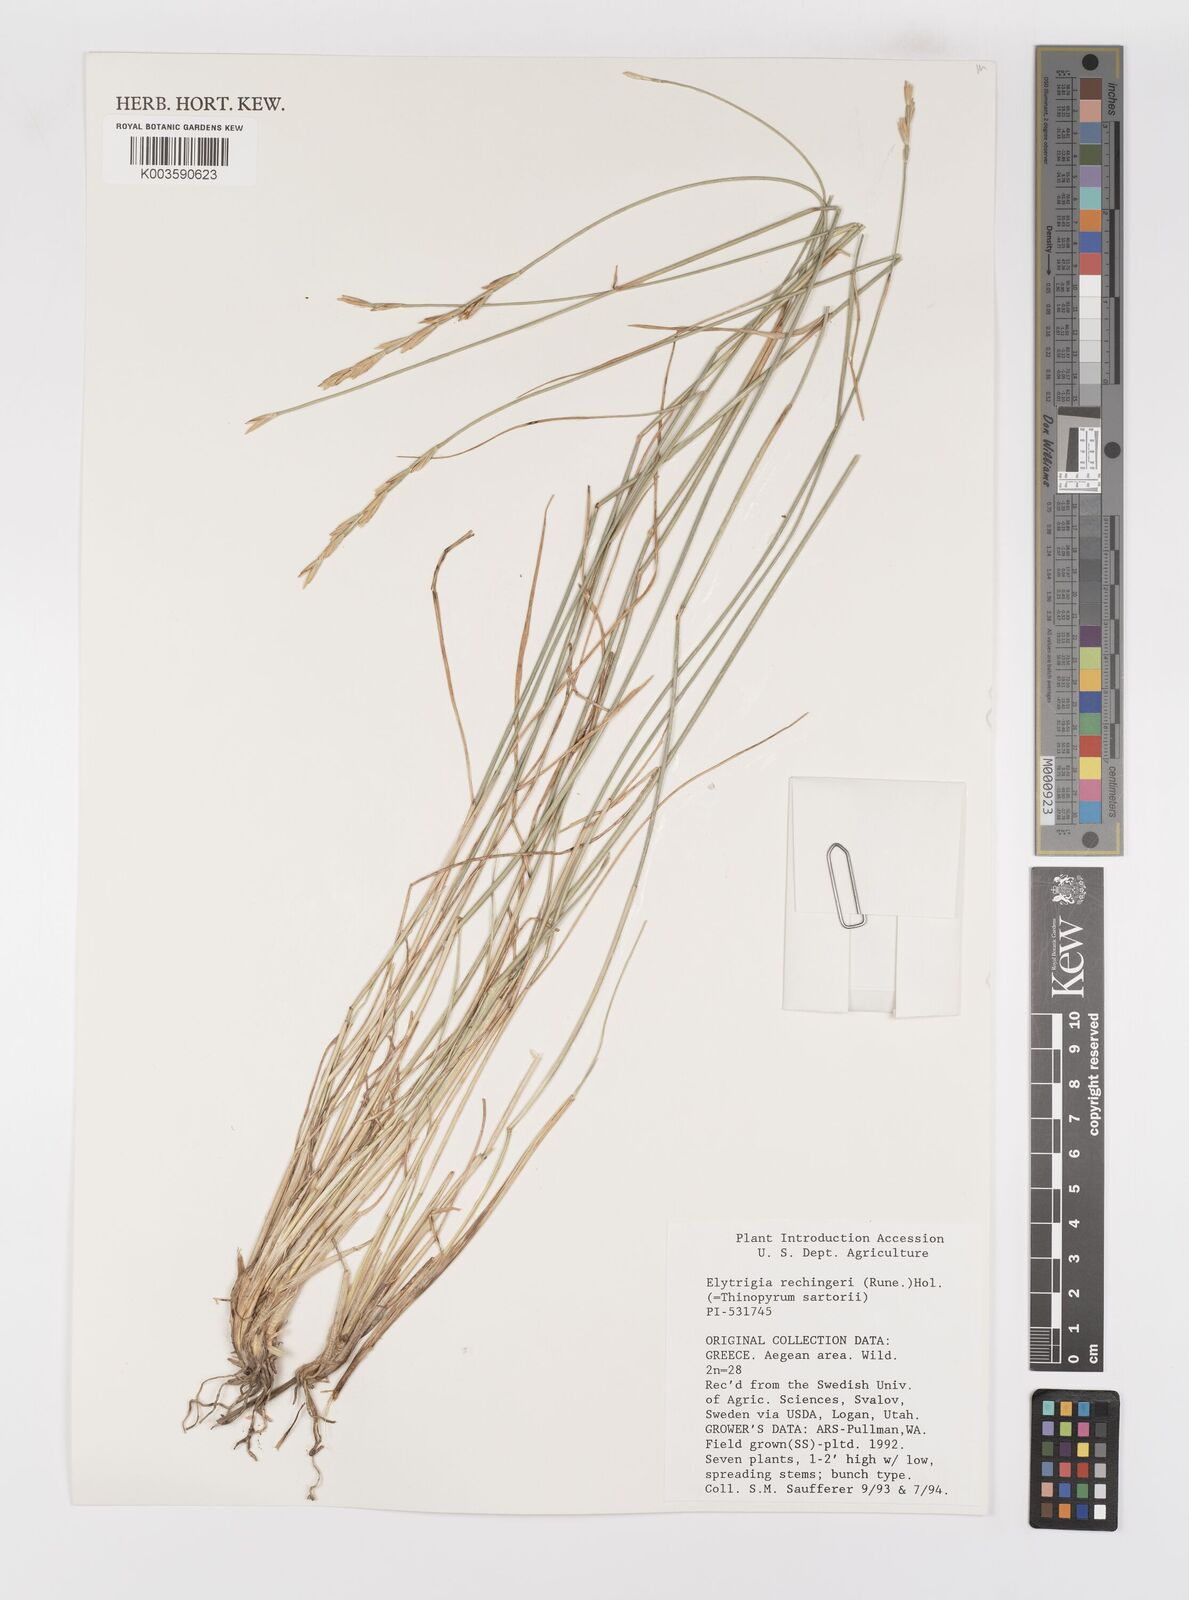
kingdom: Plantae
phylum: Tracheophyta
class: Liliopsida
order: Poales
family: Poaceae
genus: Thinopyrum
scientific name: Thinopyrum junceum
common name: Russian wheatgrass
